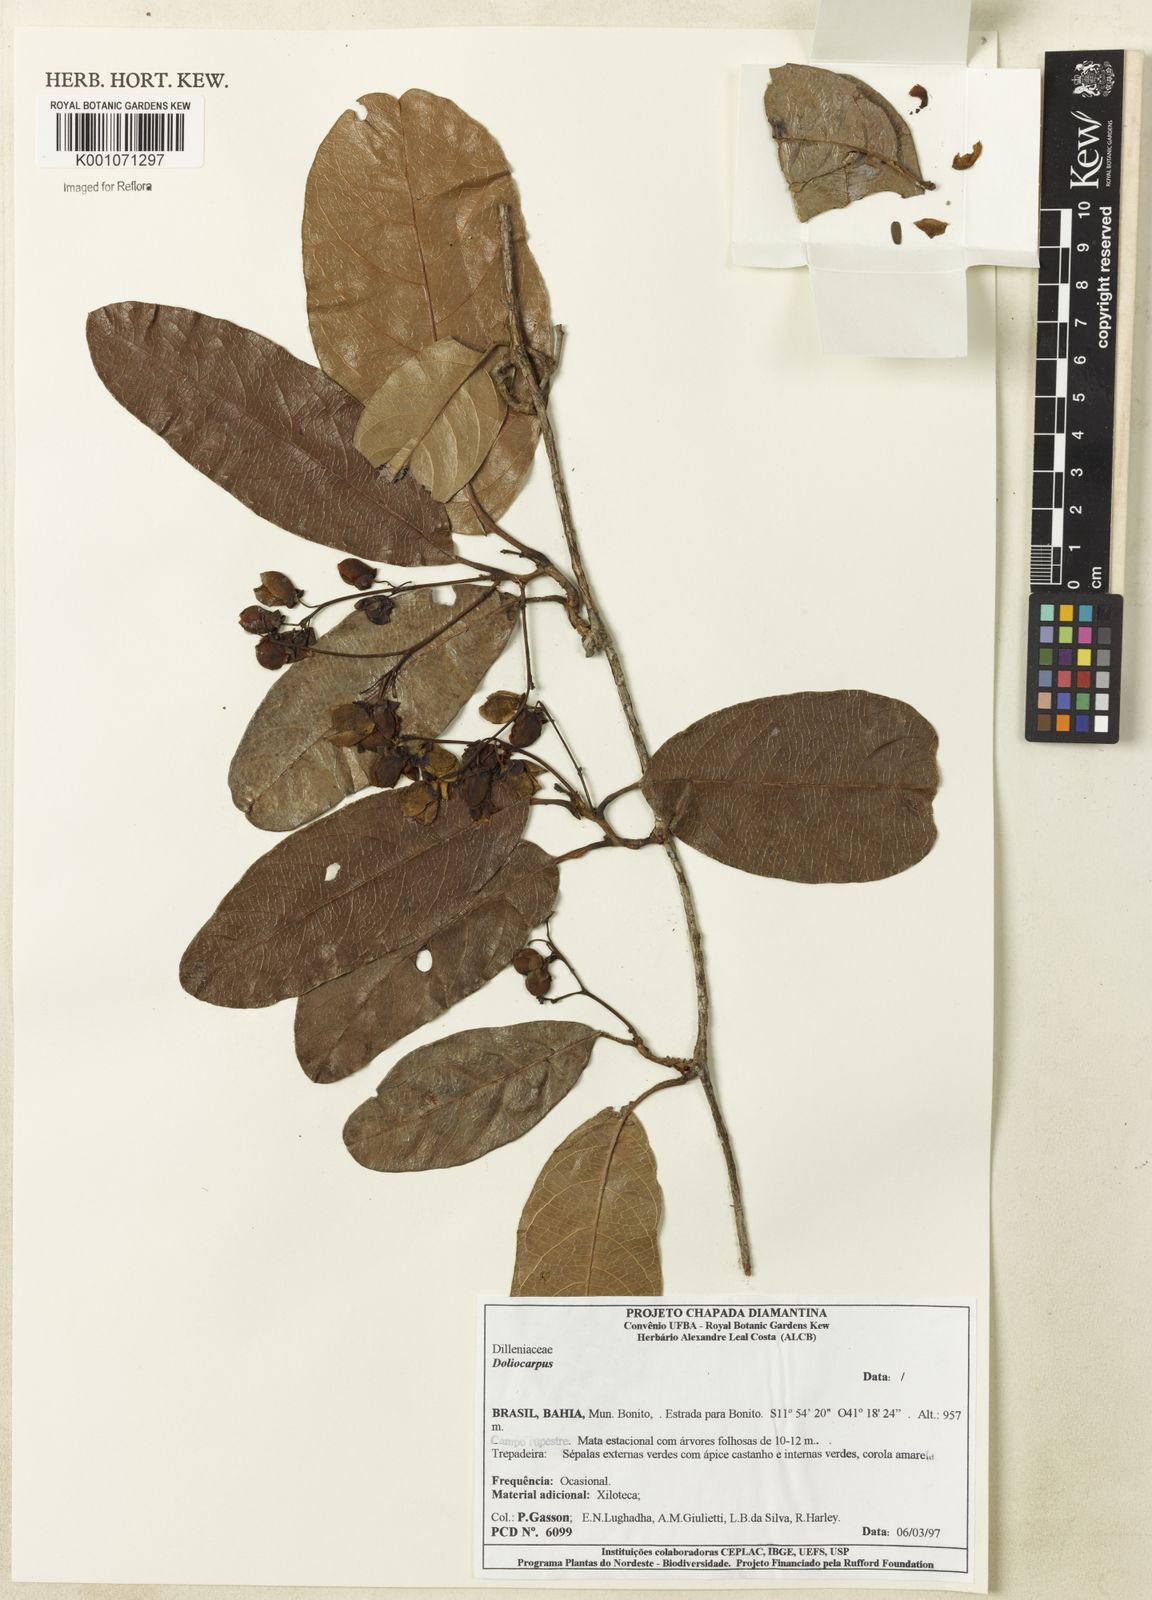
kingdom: Plantae
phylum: Tracheophyta
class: Magnoliopsida
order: Dilleniales
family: Dilleniaceae
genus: Doliocarpus
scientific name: Doliocarpus
